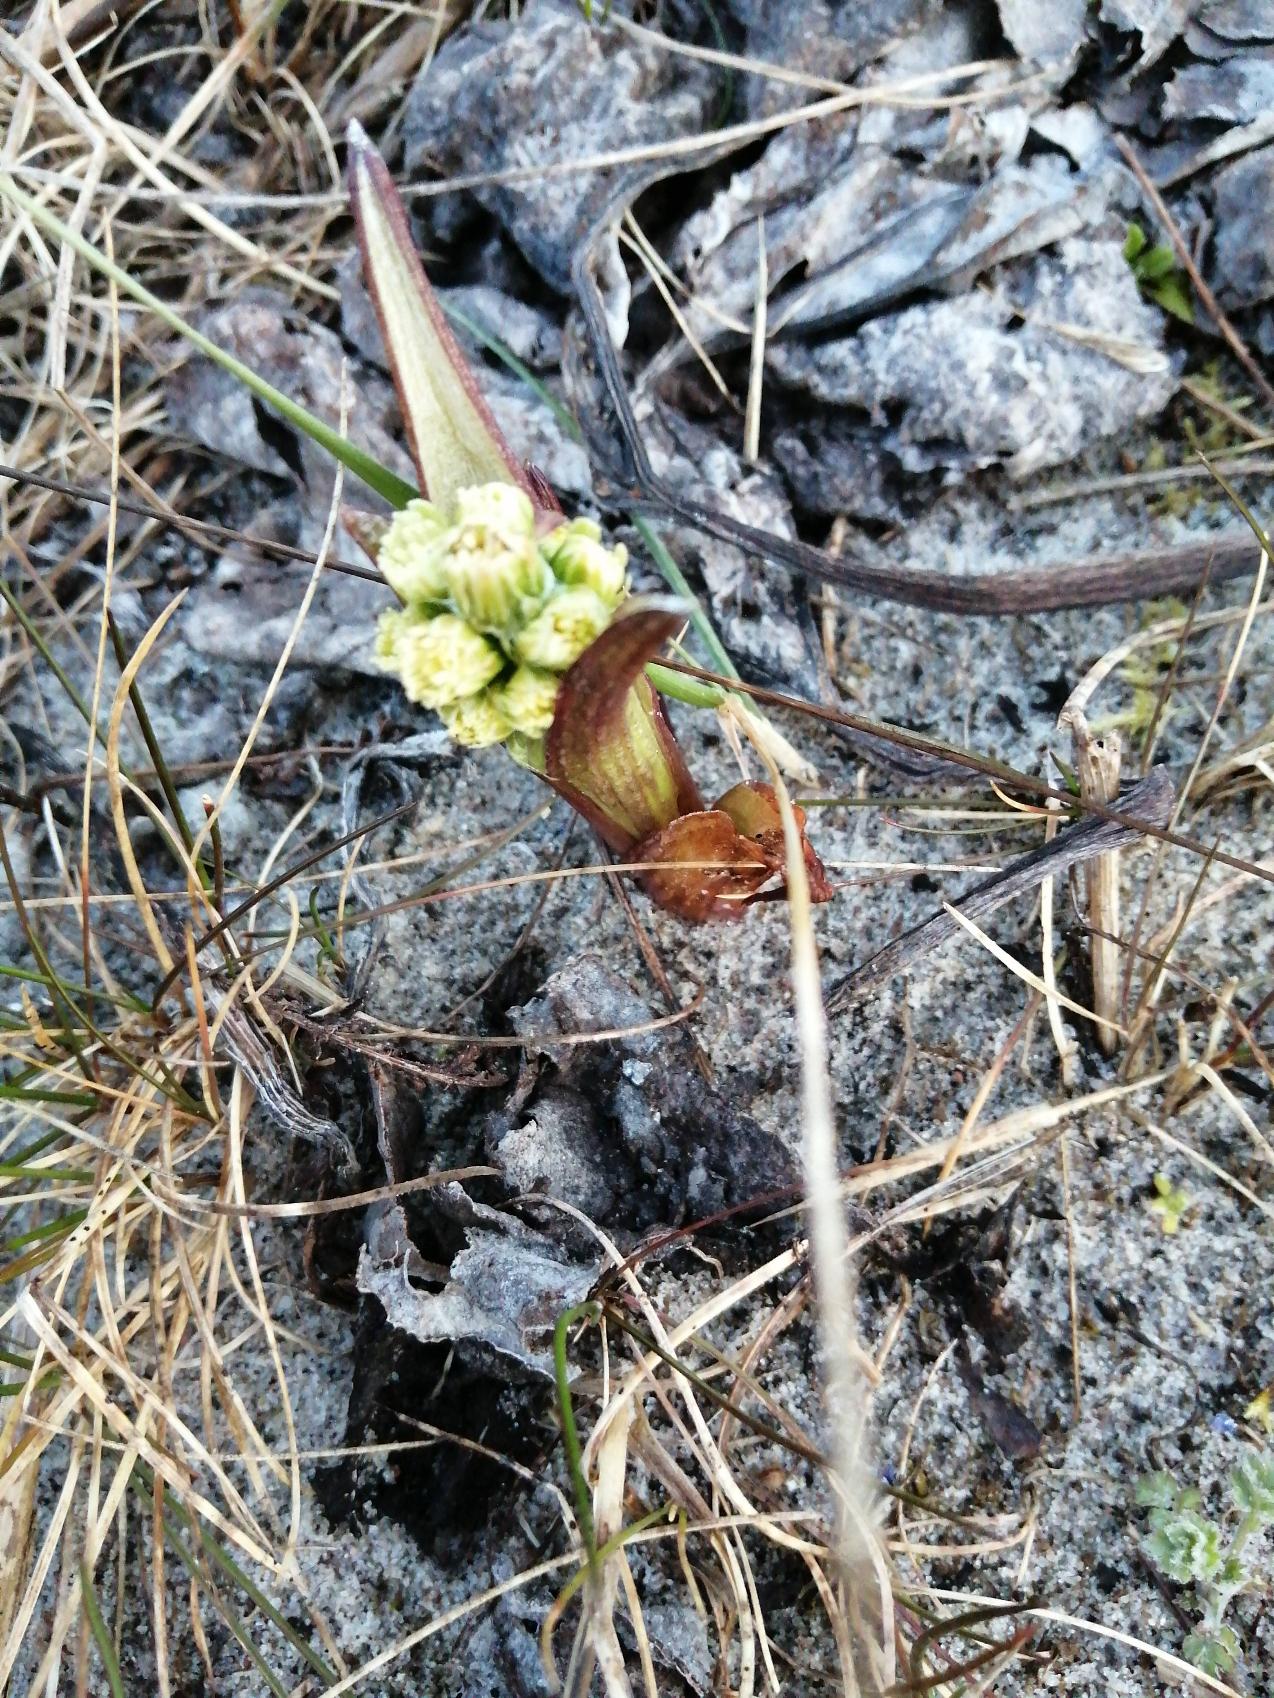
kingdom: Plantae
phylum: Tracheophyta
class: Magnoliopsida
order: Asterales
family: Asteraceae
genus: Petasites
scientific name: Petasites spurius
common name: Filtet hestehov
